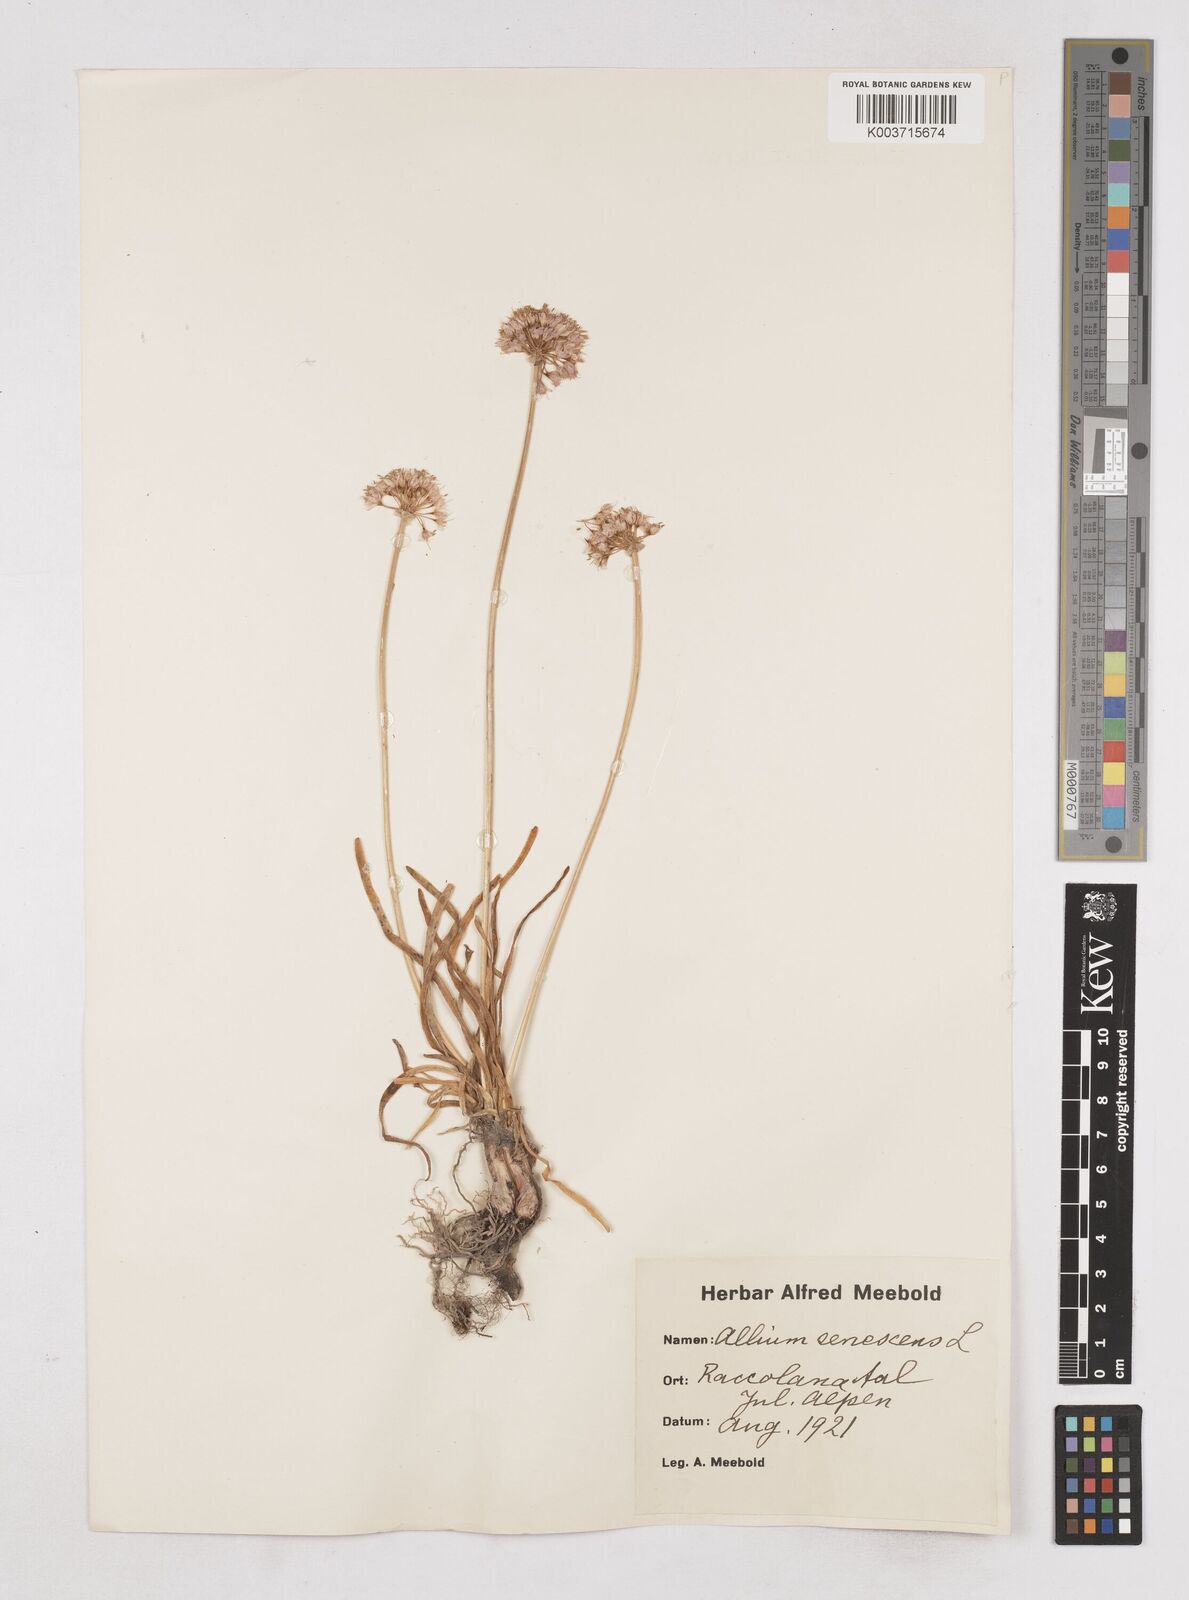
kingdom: Plantae
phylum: Tracheophyta
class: Liliopsida
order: Asparagales
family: Amaryllidaceae
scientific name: Amaryllidaceae
